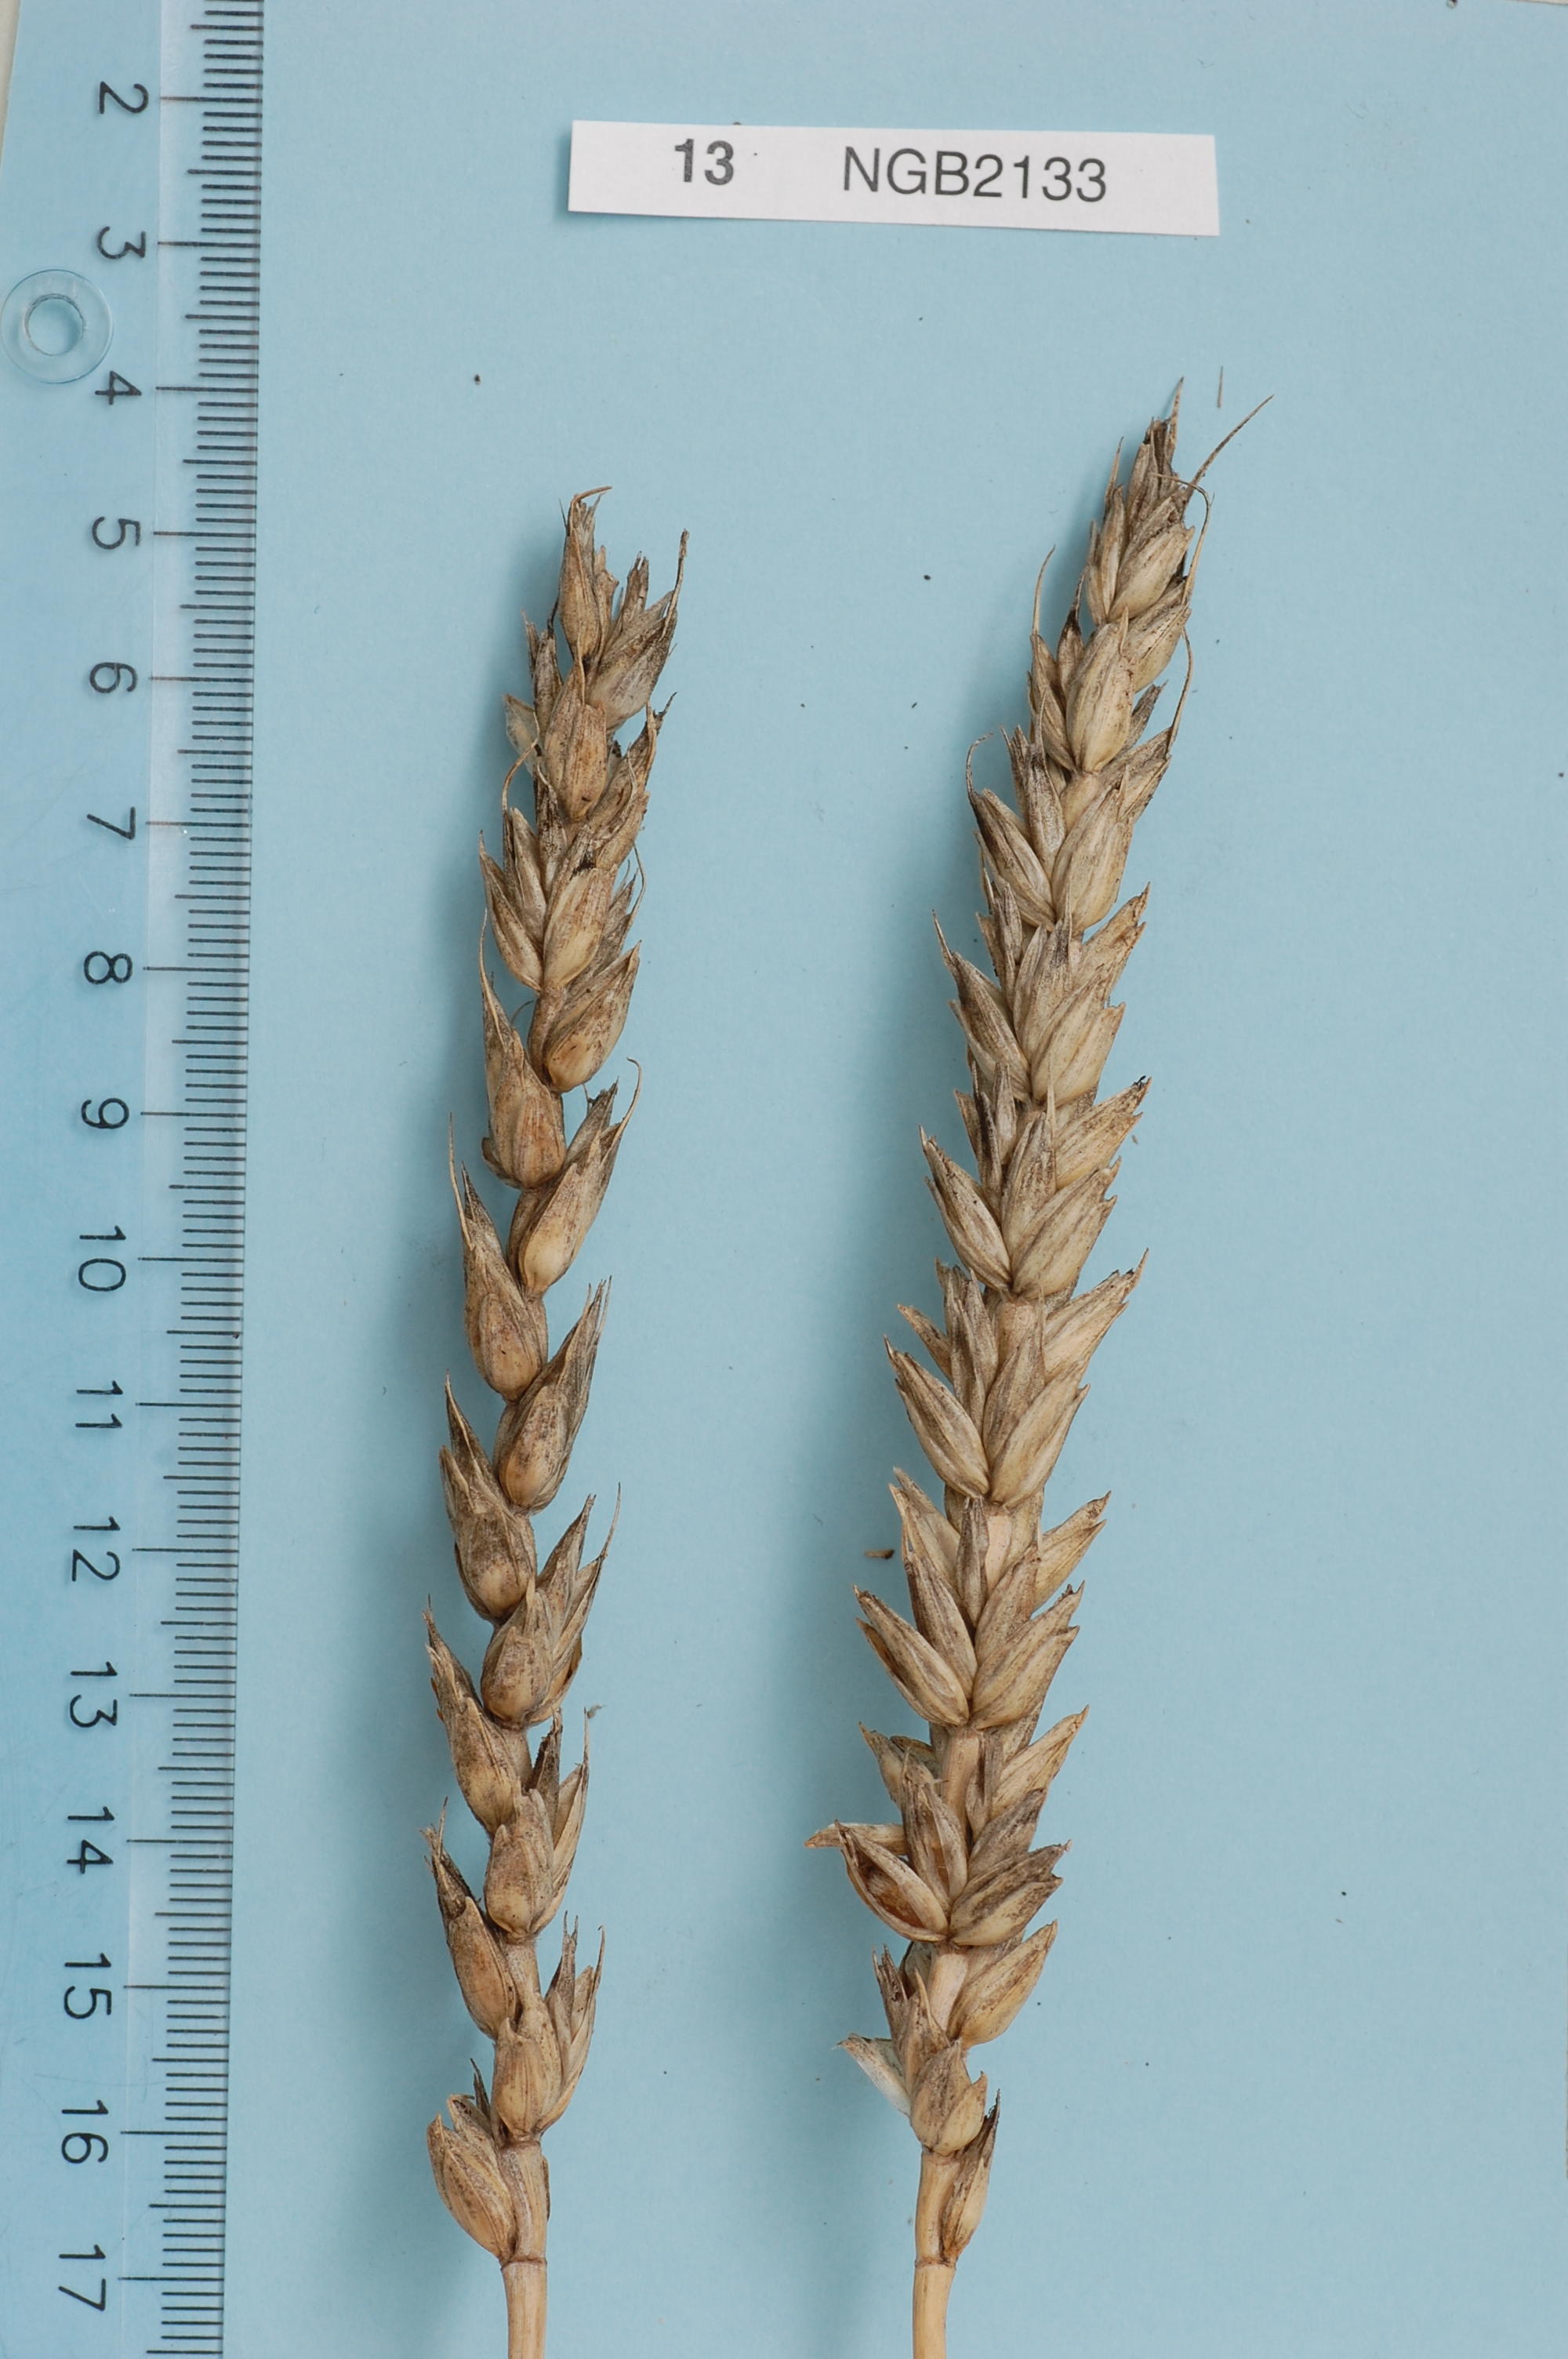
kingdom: Plantae
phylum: Tracheophyta
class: Liliopsida
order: Poales
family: Poaceae
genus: Triticum
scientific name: Triticum aestivum
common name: Common wheat
